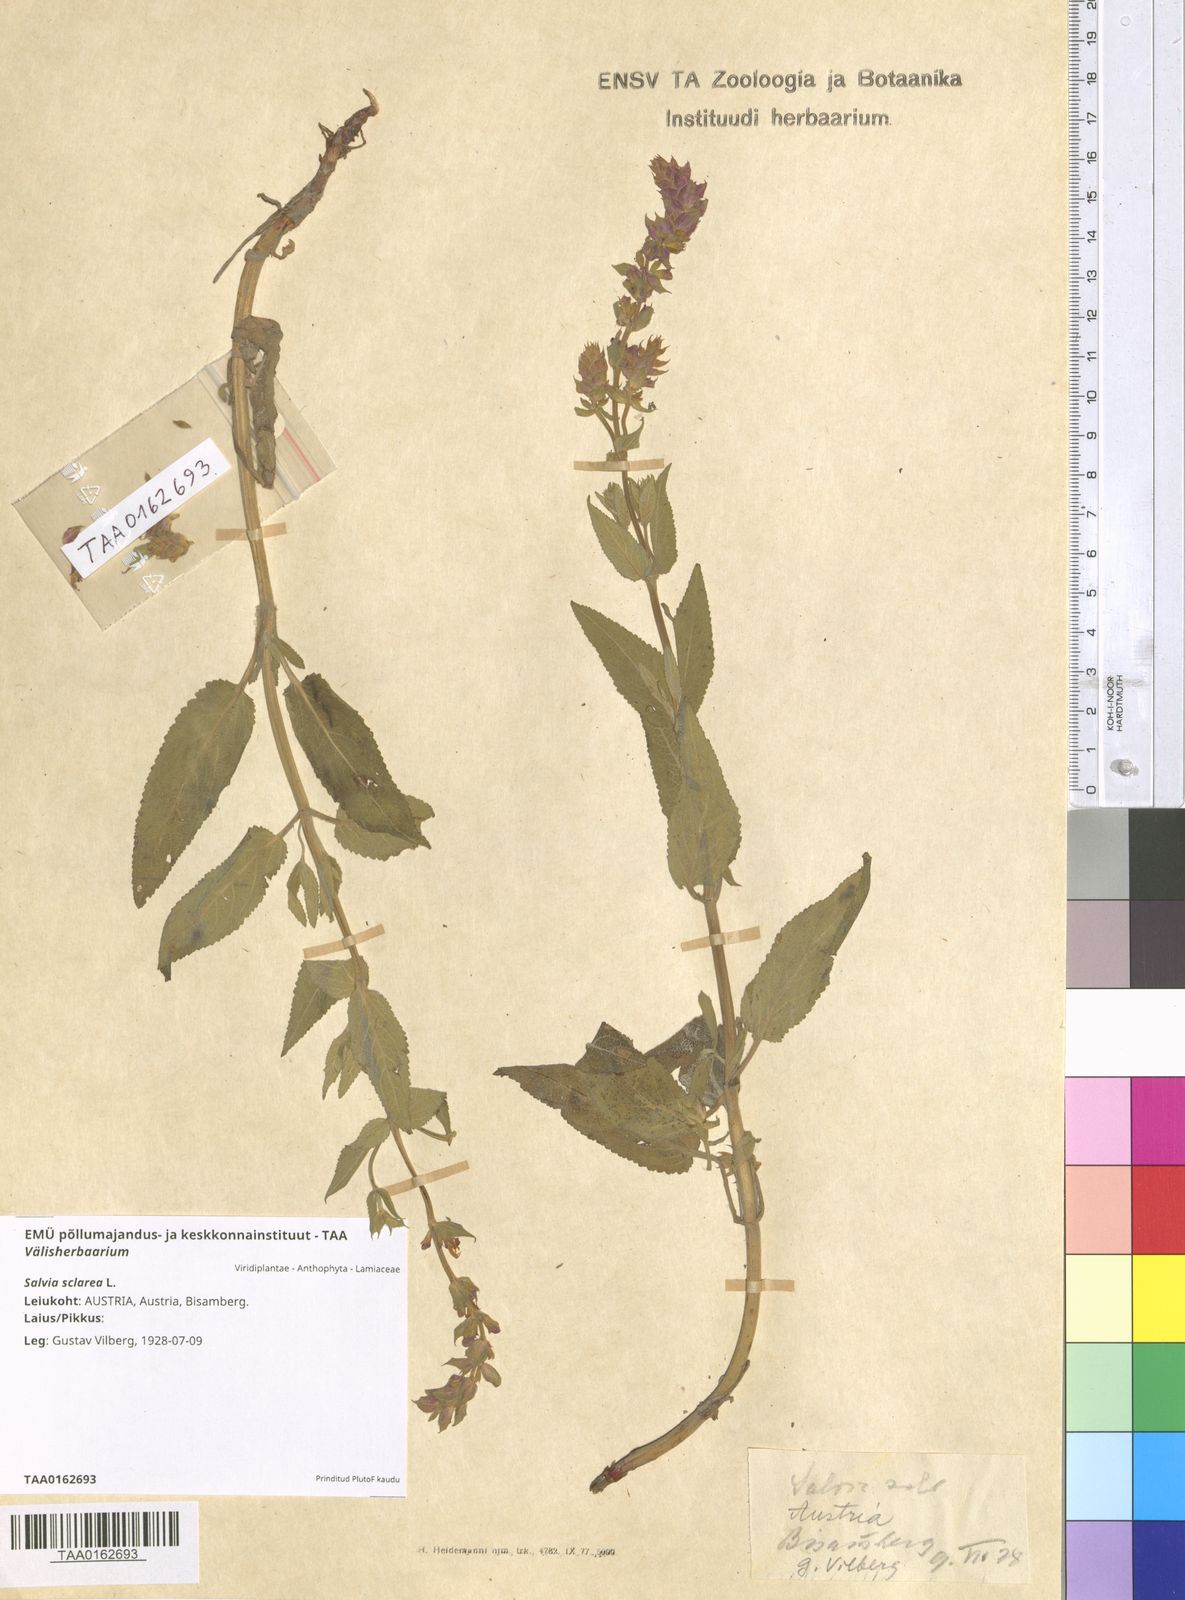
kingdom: Plantae
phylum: Tracheophyta
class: Magnoliopsida
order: Lamiales
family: Lamiaceae
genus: Salvia
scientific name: Salvia sclarea
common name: Clary
